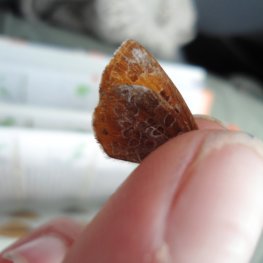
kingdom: Animalia
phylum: Arthropoda
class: Insecta
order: Lepidoptera
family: Lycaenidae
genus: Feniseca
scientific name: Feniseca tarquinius
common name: Harvester
